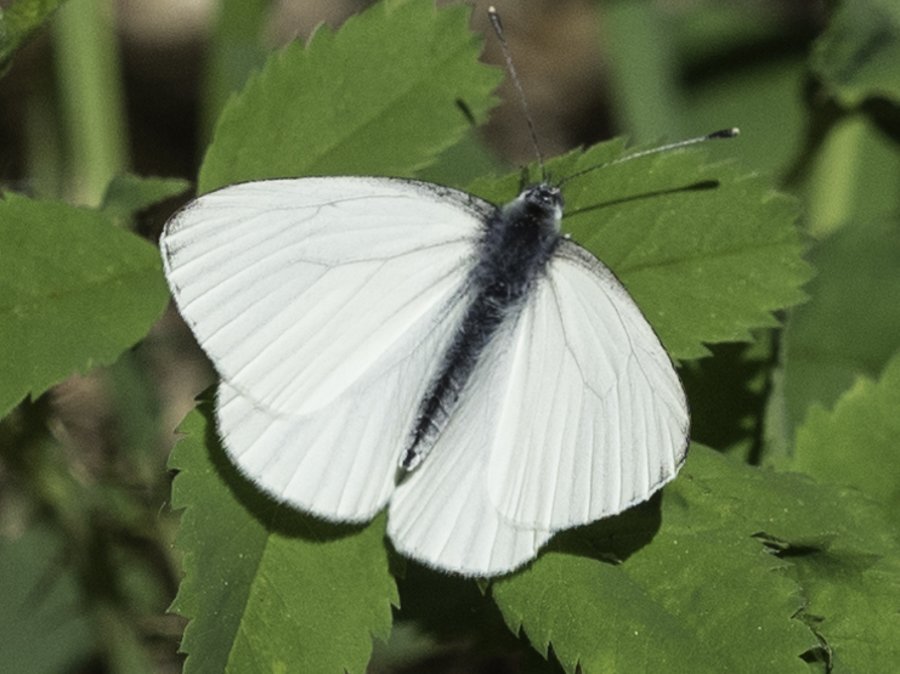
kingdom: Animalia
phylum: Arthropoda
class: Insecta
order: Lepidoptera
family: Pieridae
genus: Pieris
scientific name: Pieris oleracea
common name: Mustard White
